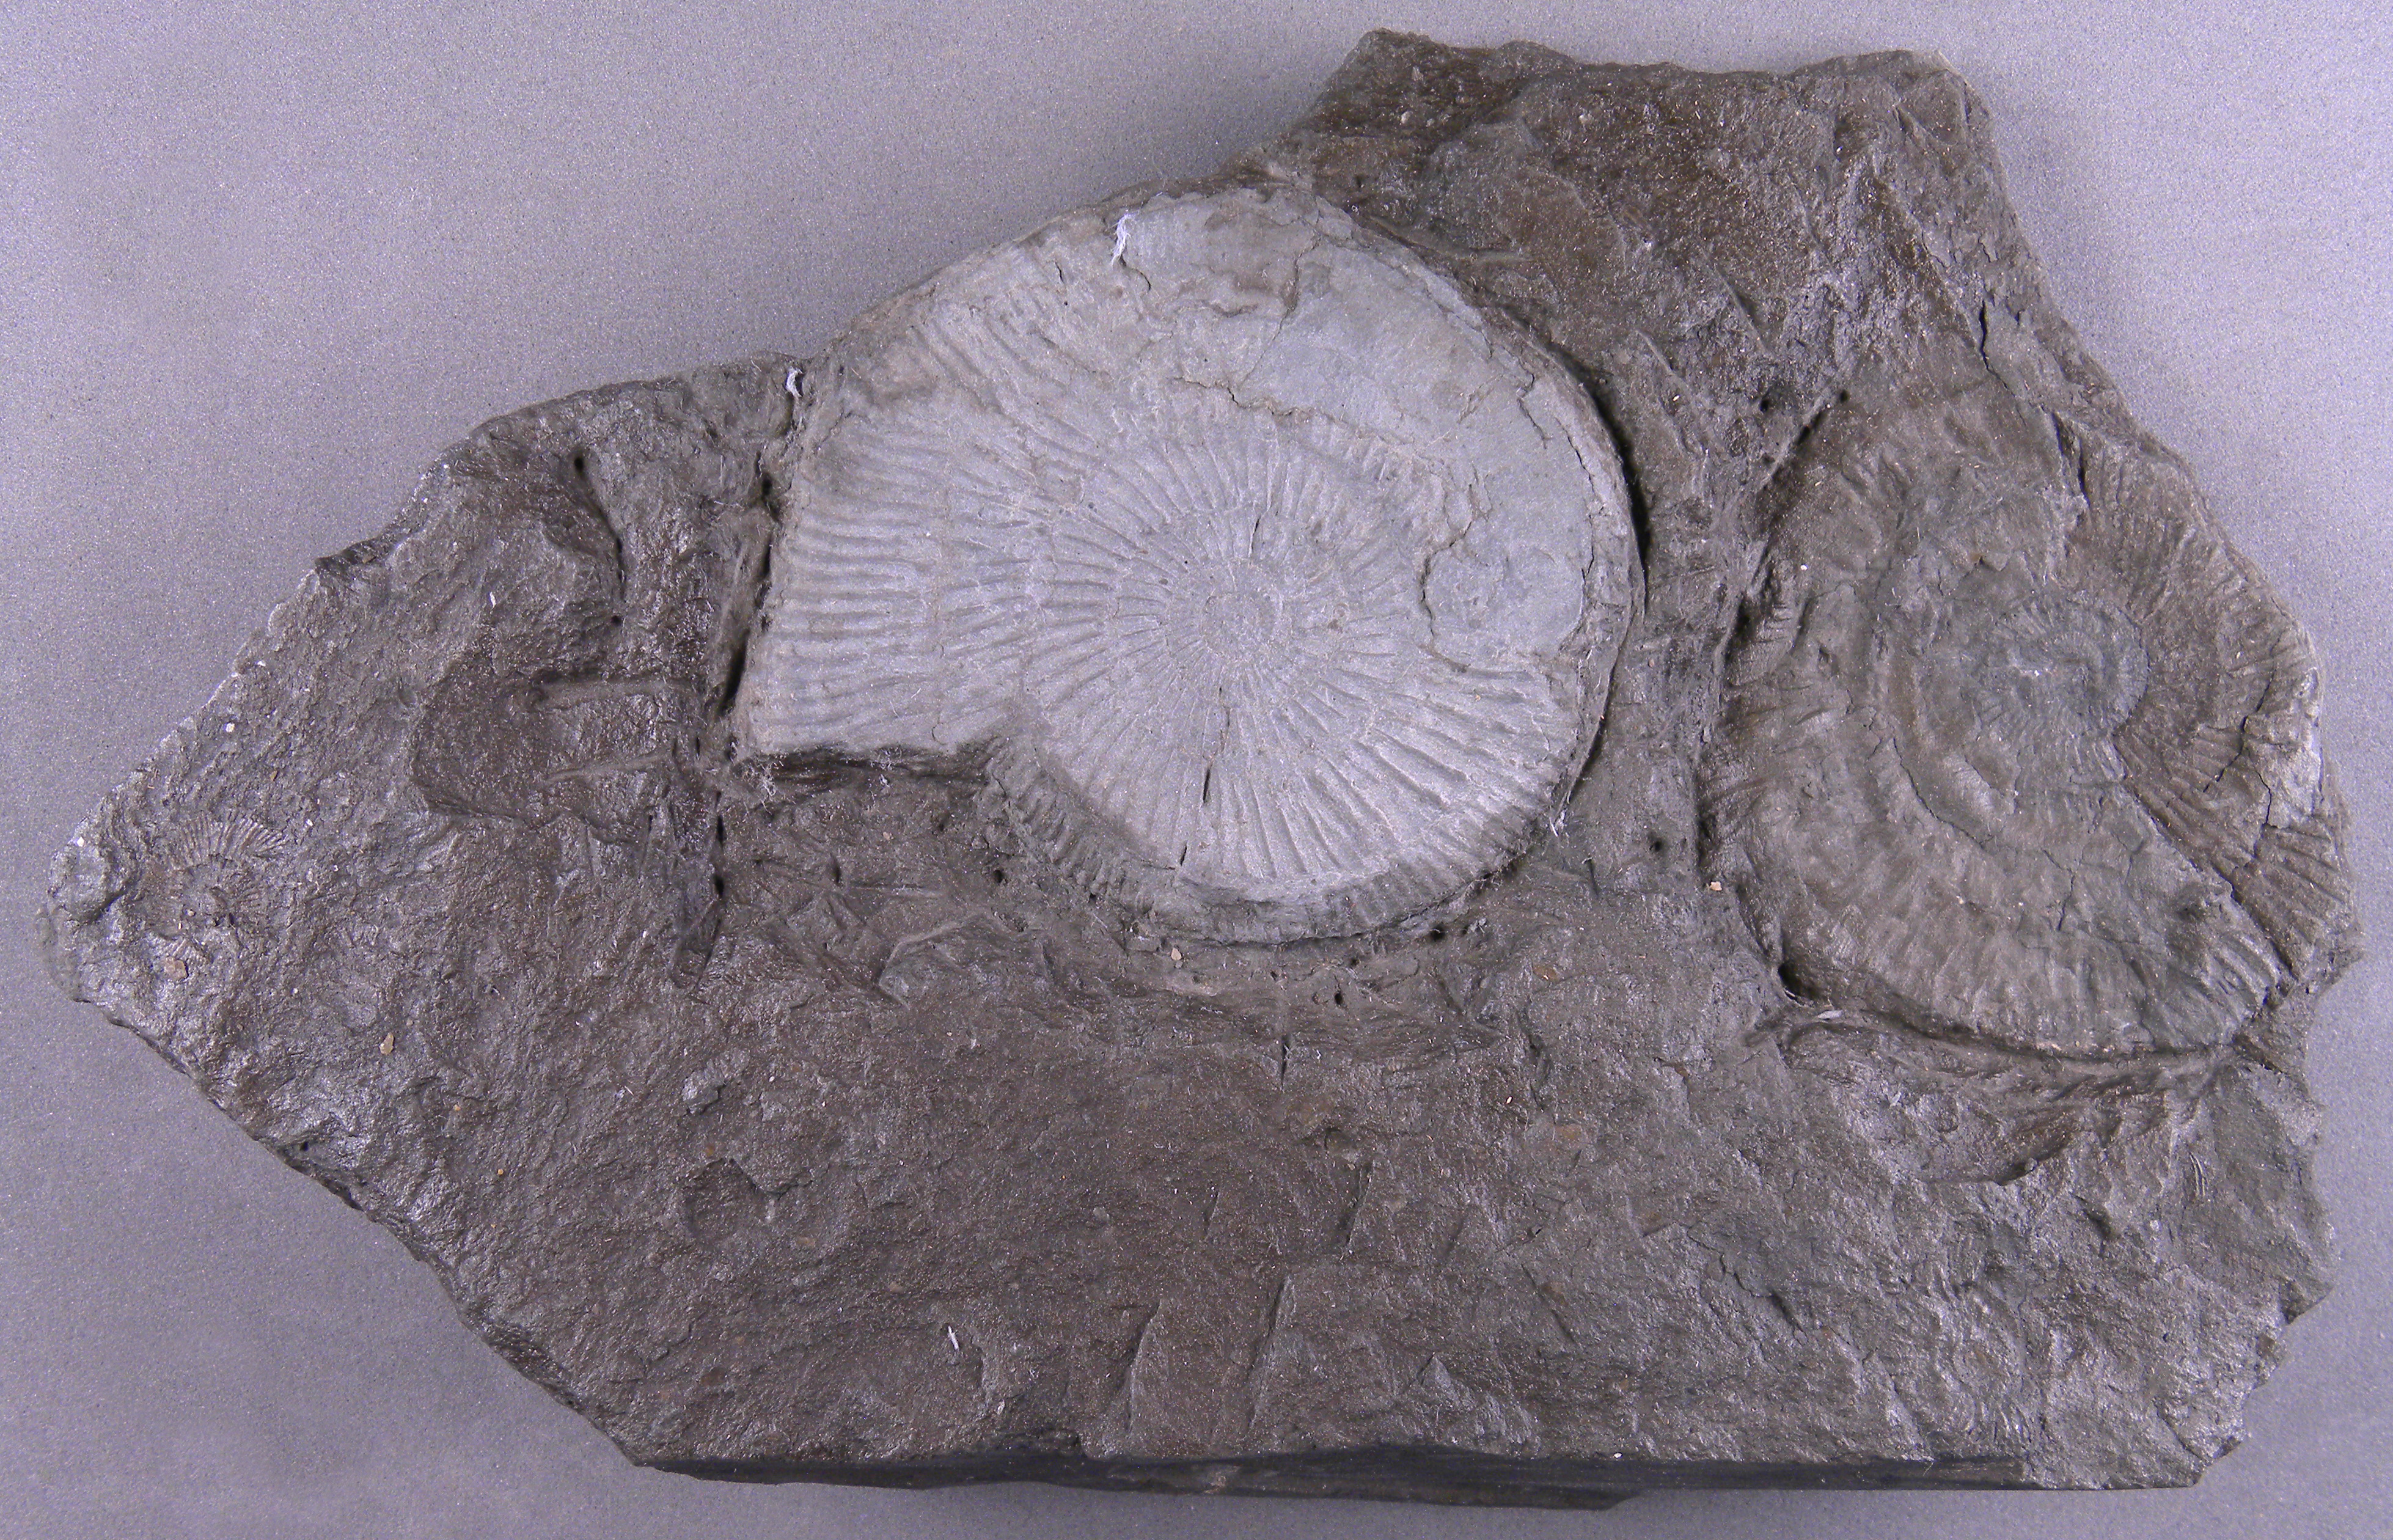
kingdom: Animalia
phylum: Mollusca
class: Cephalopoda
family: Dactylioceratidae
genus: Dactylioceras
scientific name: Dactylioceras
